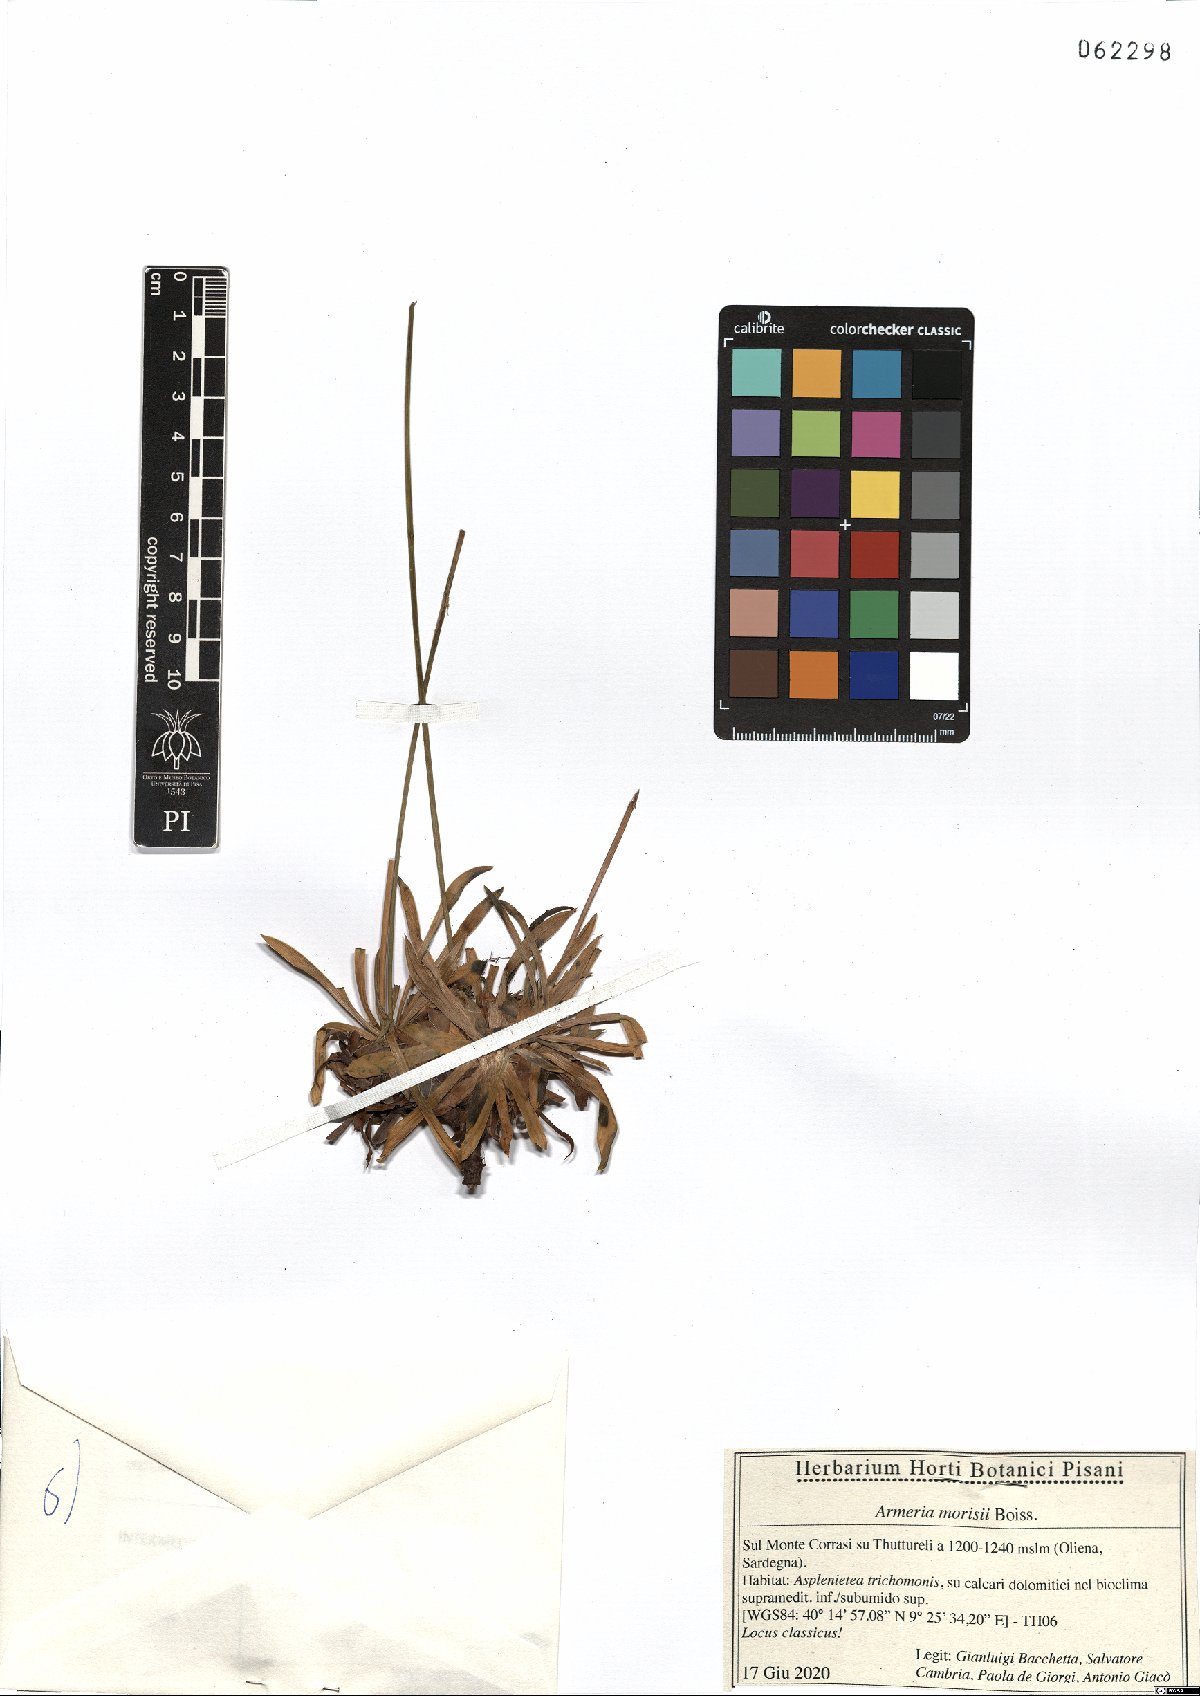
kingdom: Plantae
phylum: Tracheophyta
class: Magnoliopsida
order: Caryophyllales
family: Plumbaginaceae
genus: Armeria
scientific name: Armeria morisii
